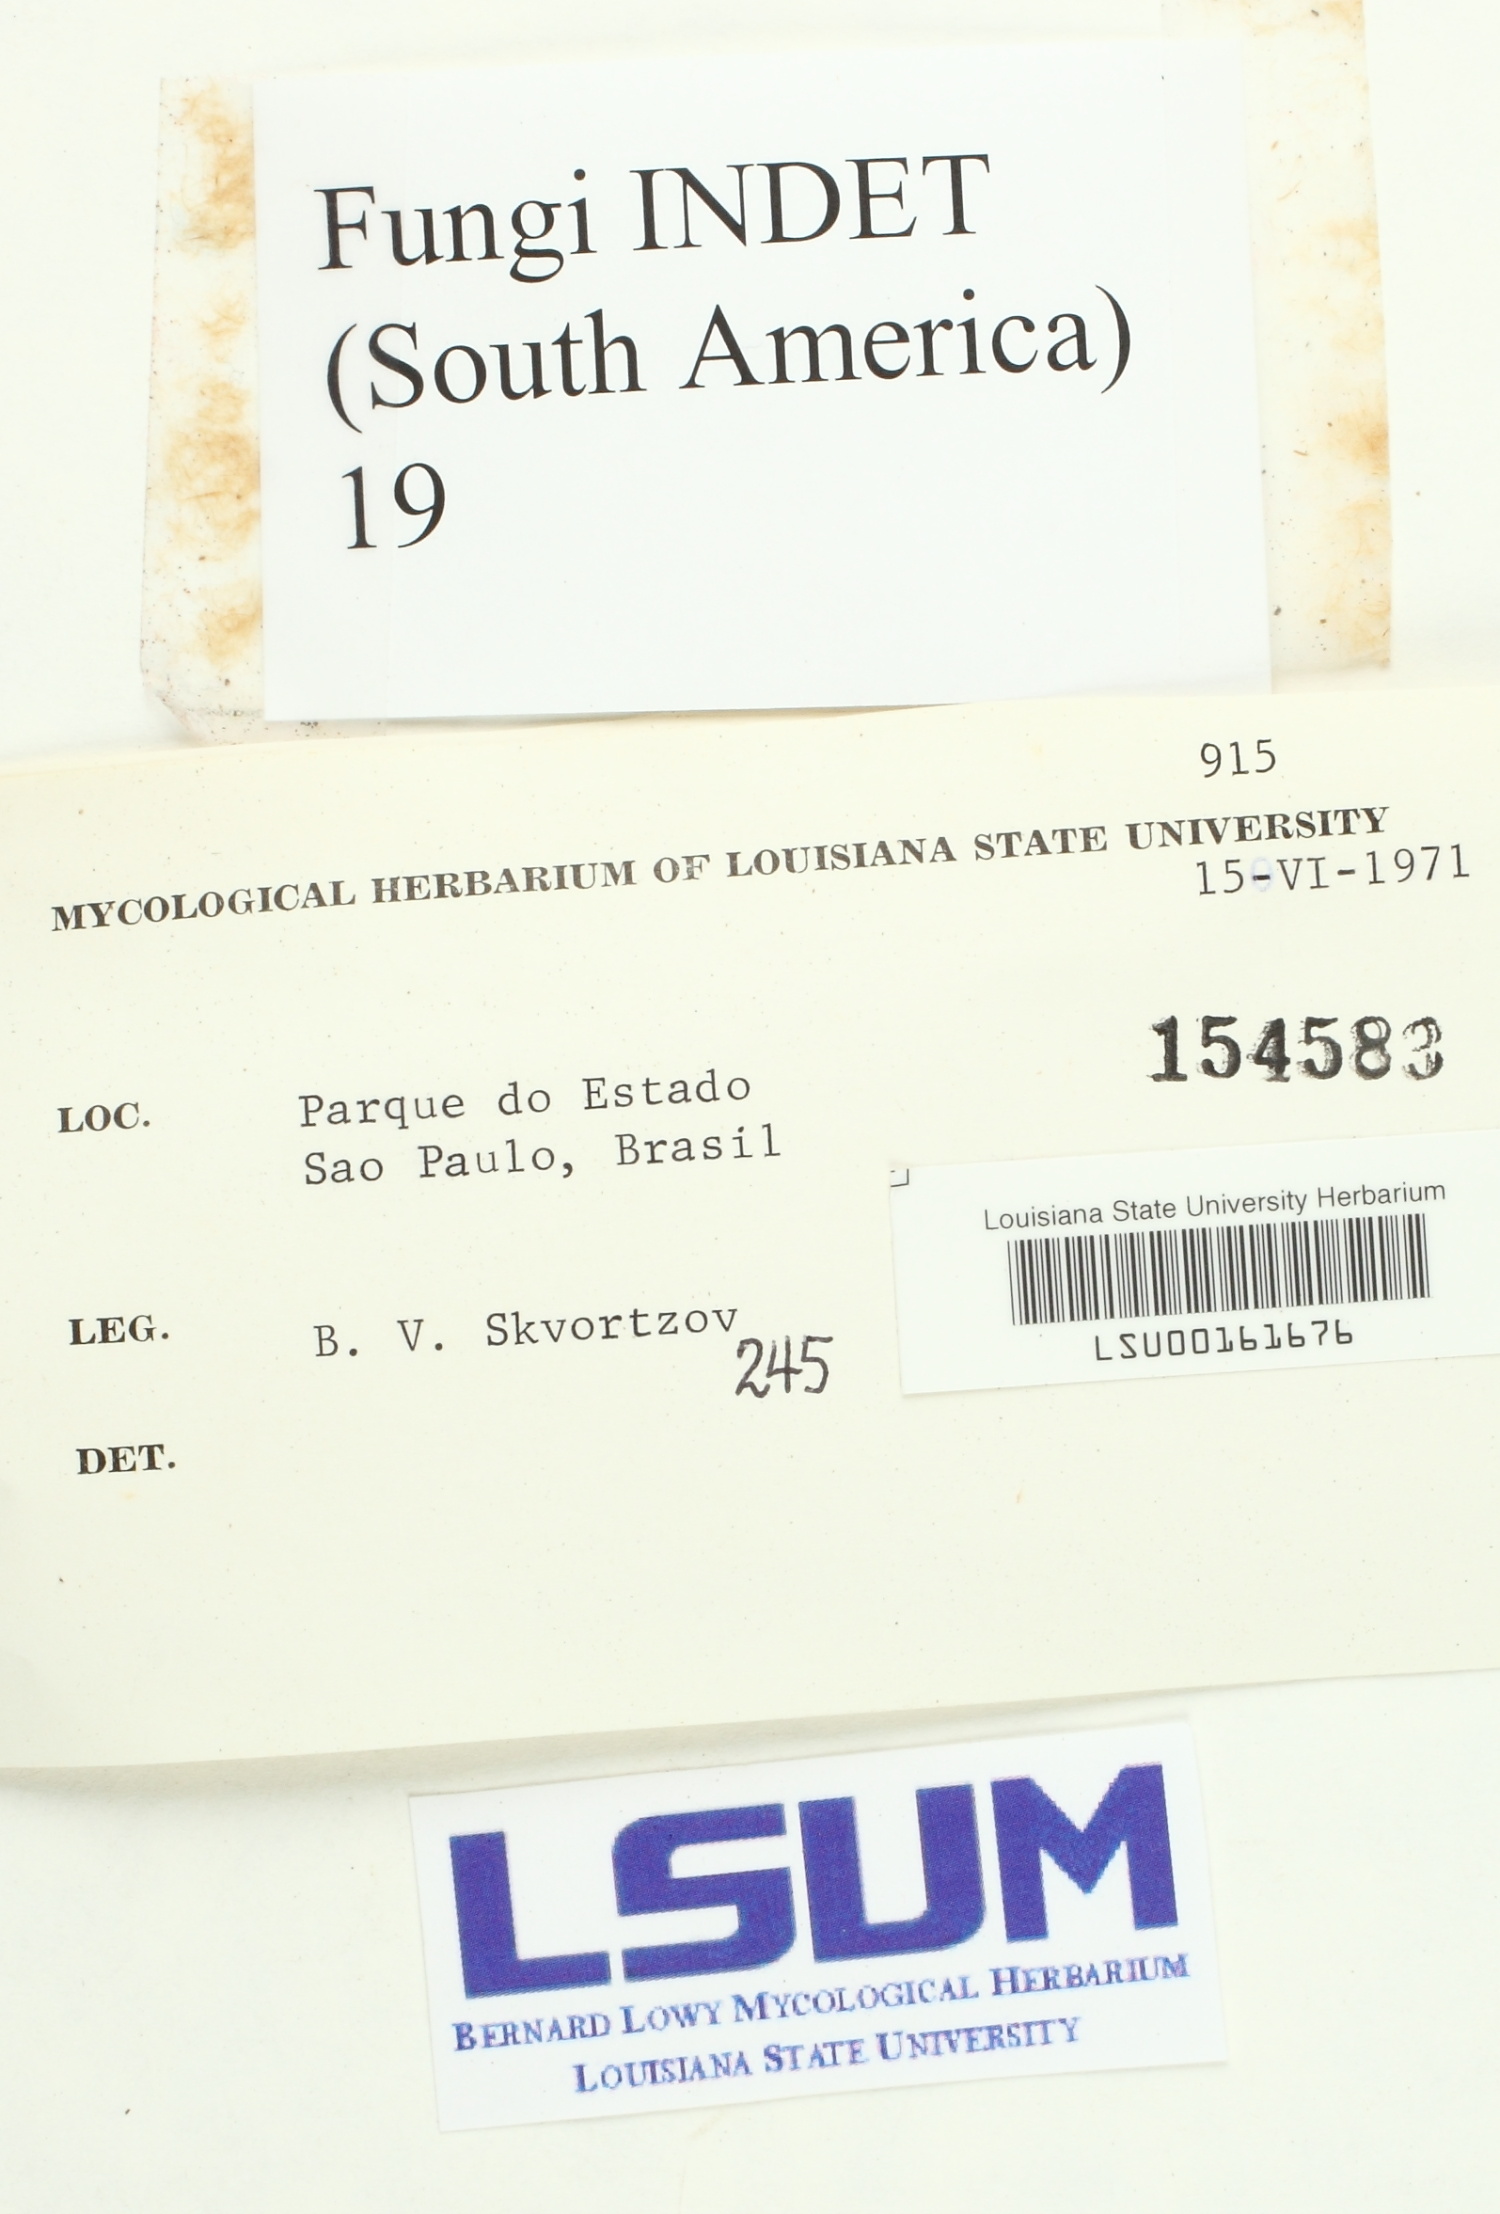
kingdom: Fungi
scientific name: Fungi
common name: Fungi
